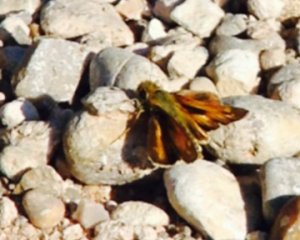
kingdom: Animalia
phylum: Arthropoda
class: Insecta
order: Lepidoptera
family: Hesperiidae
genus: Atalopedes
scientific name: Atalopedes campestris
